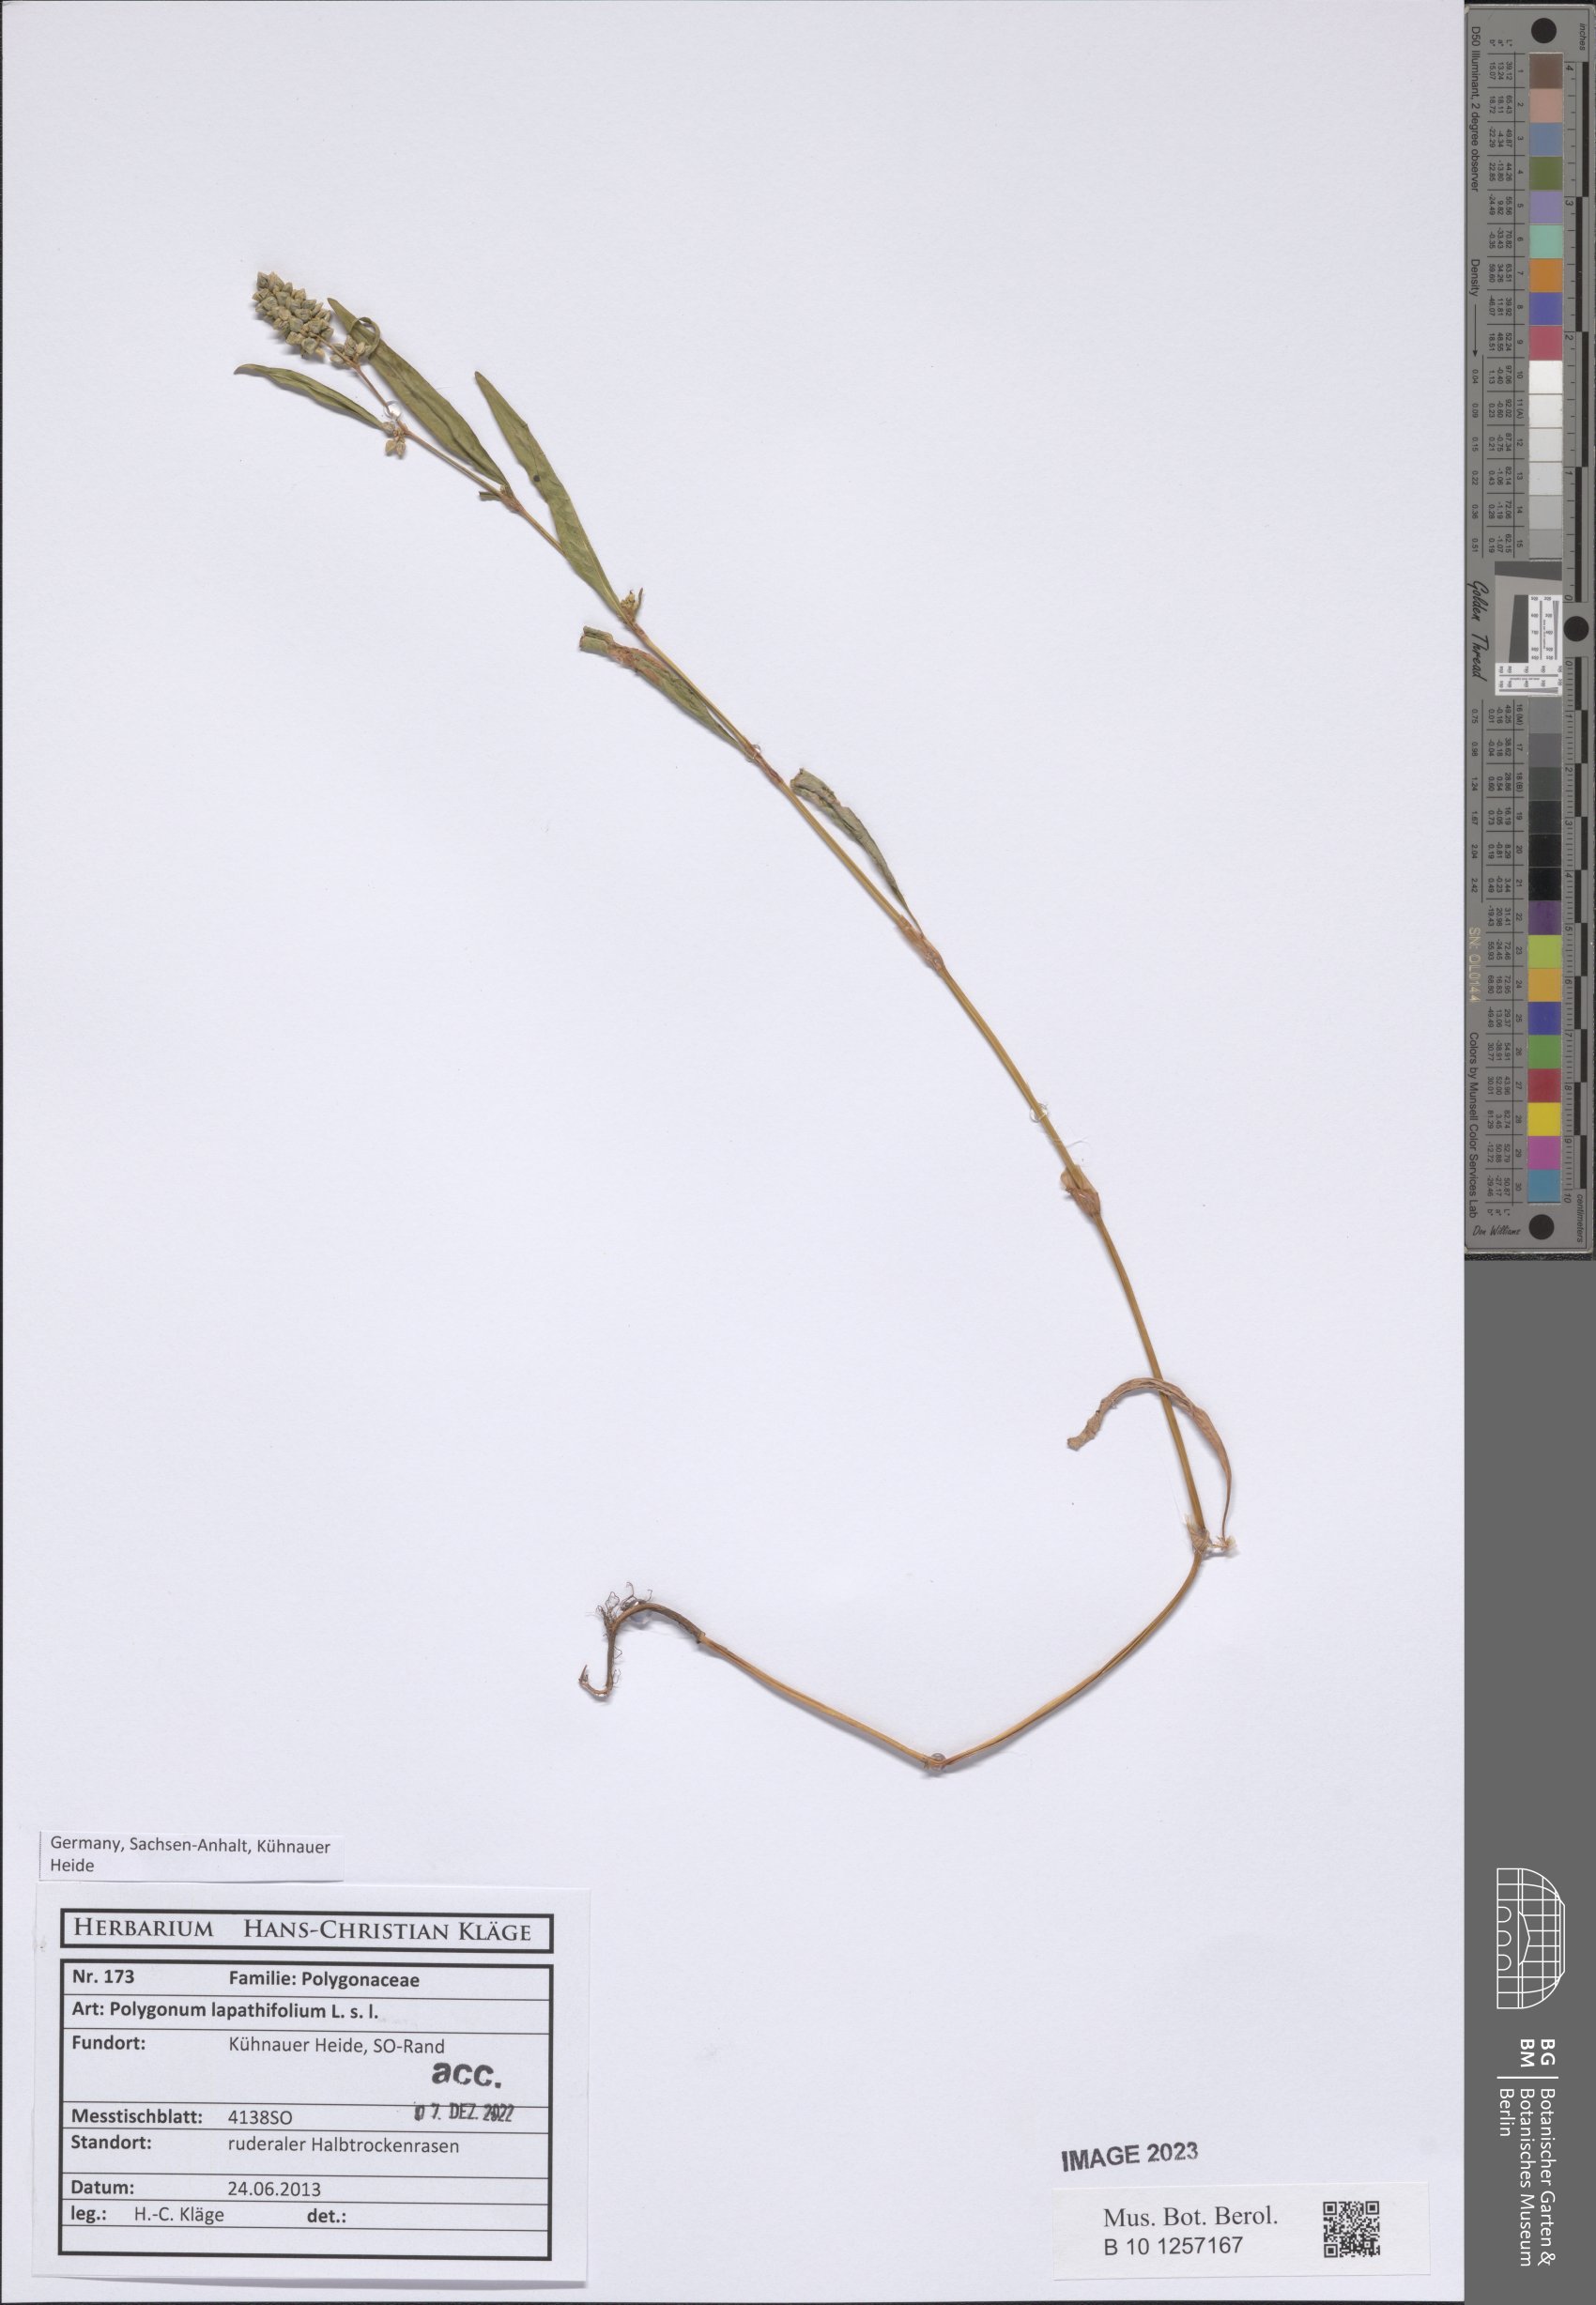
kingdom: Plantae
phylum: Tracheophyta
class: Magnoliopsida
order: Caryophyllales
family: Polygonaceae
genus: Persicaria
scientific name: Persicaria lapathifolia
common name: Curlytop knotweed
